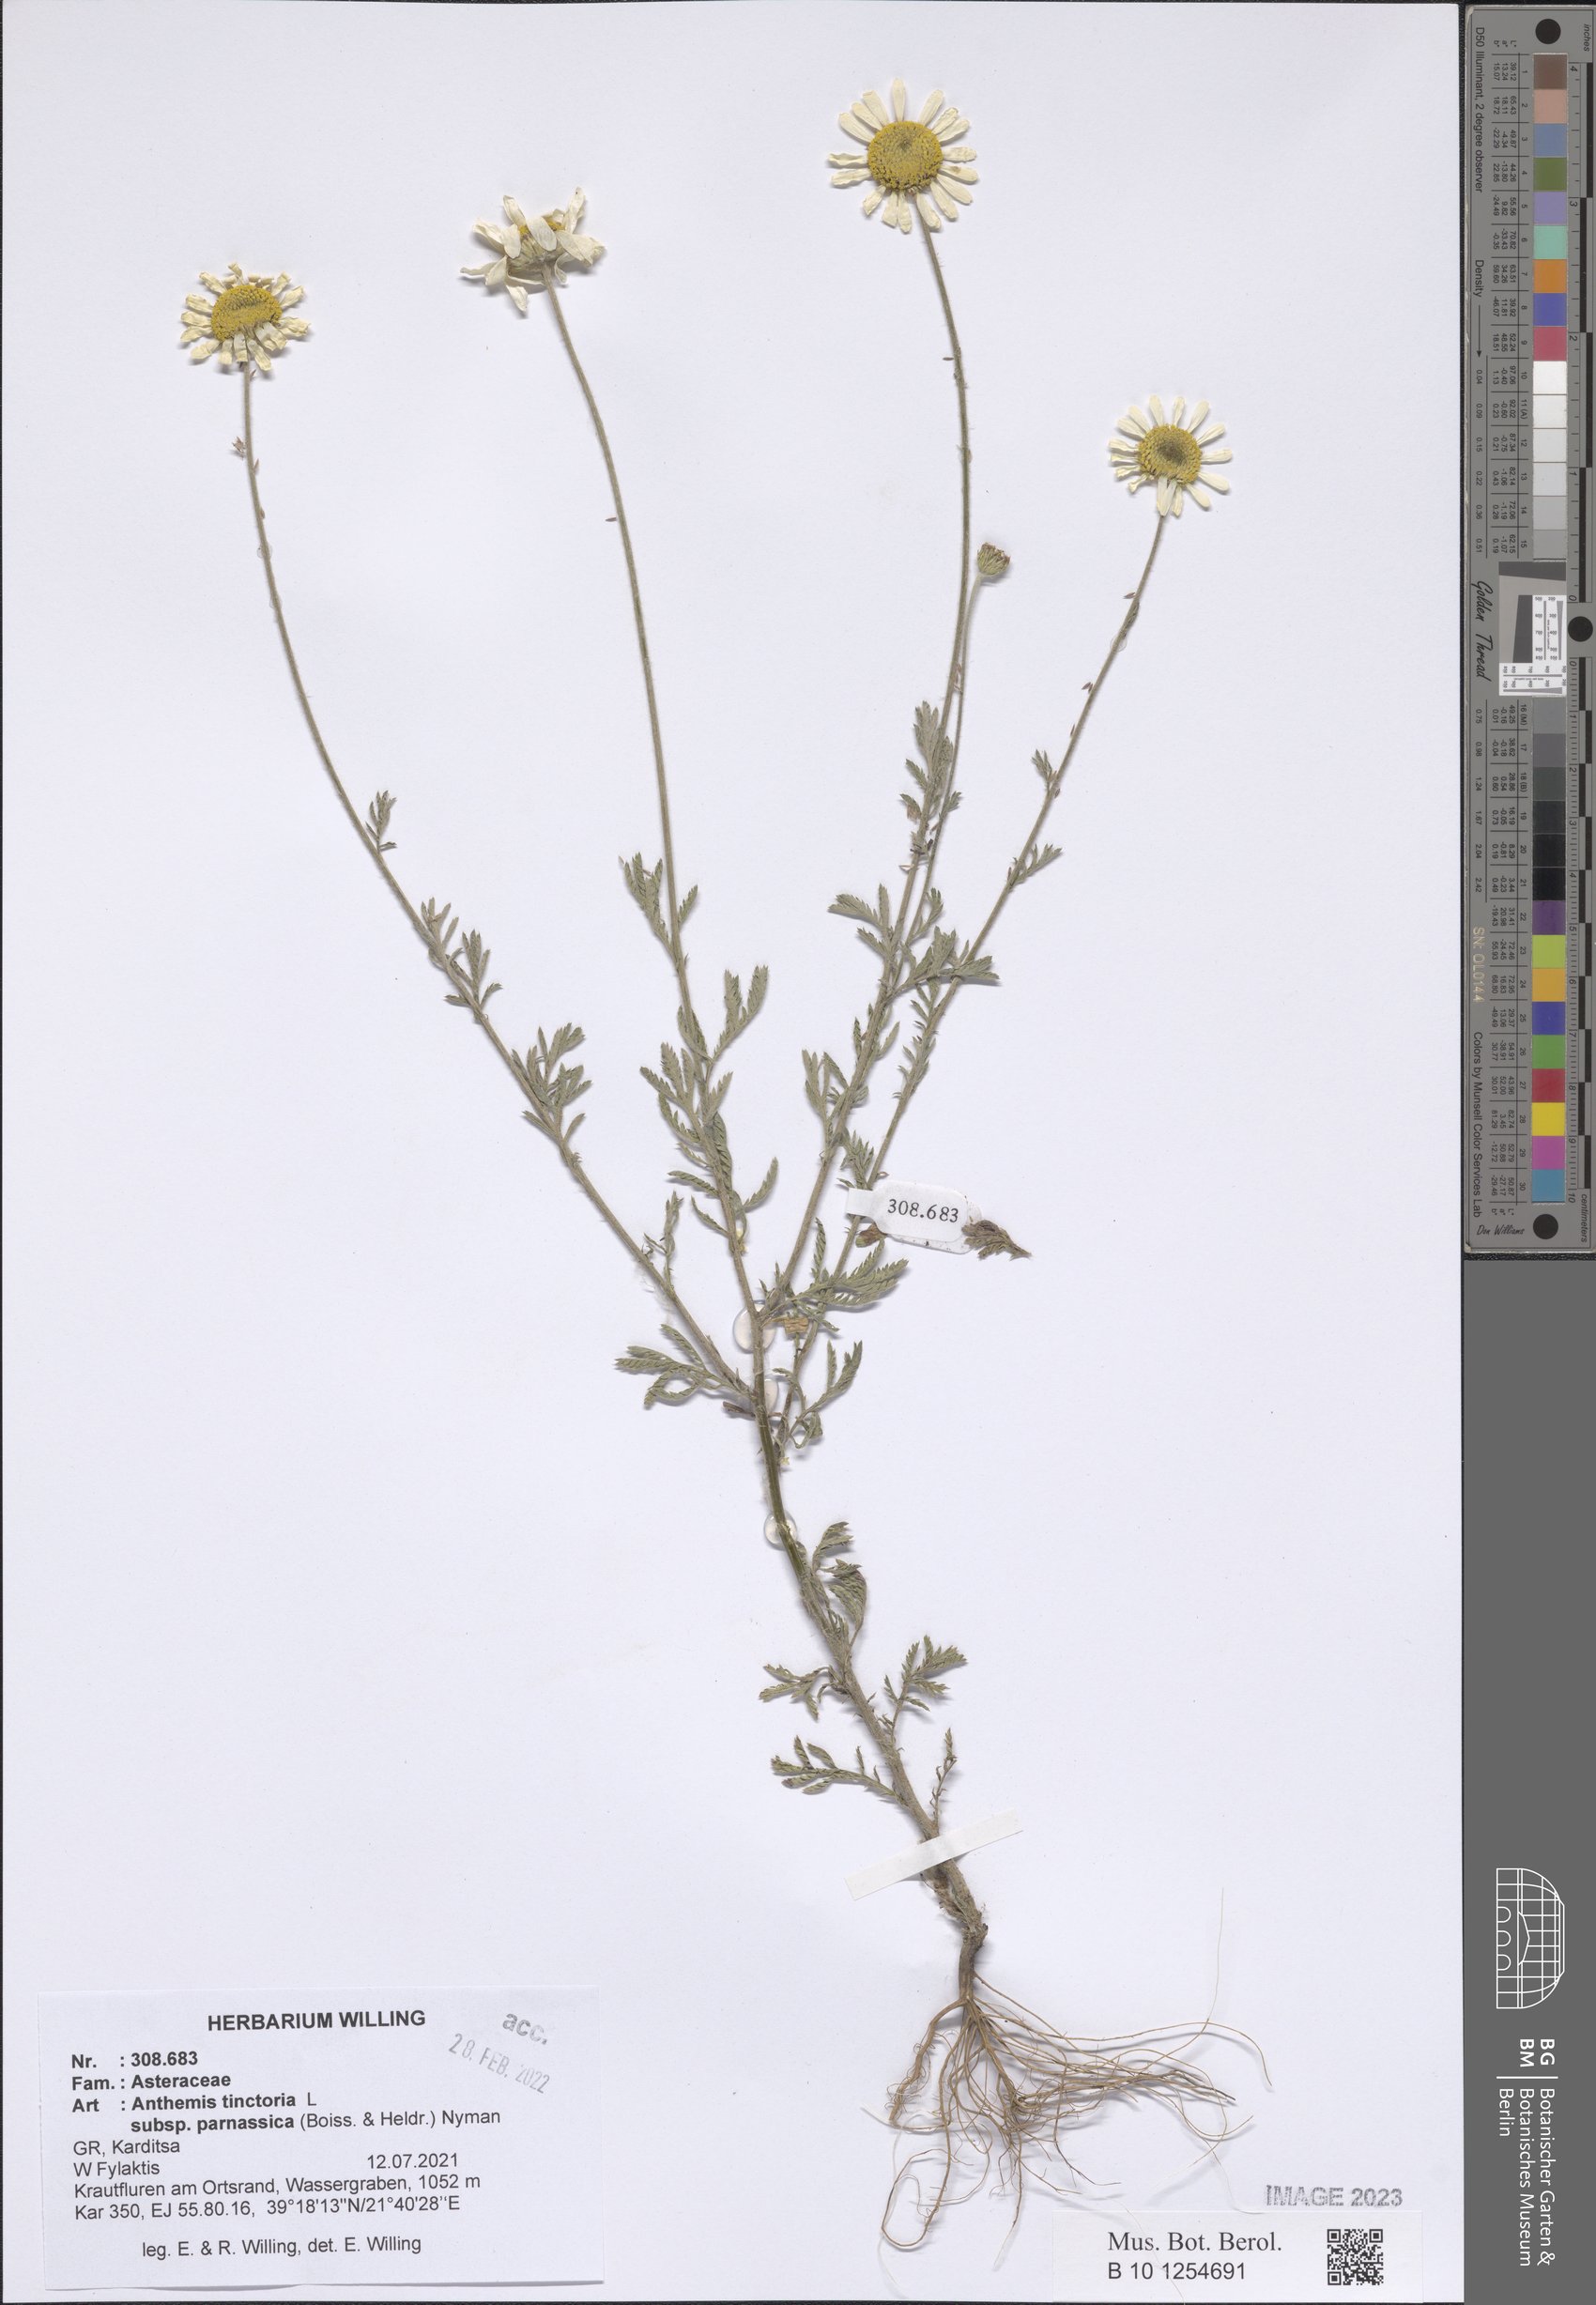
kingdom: Plantae
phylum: Tracheophyta
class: Magnoliopsida
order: Asterales
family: Asteraceae
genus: Cota
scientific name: Cota tinctoria
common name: Golden chamomile
